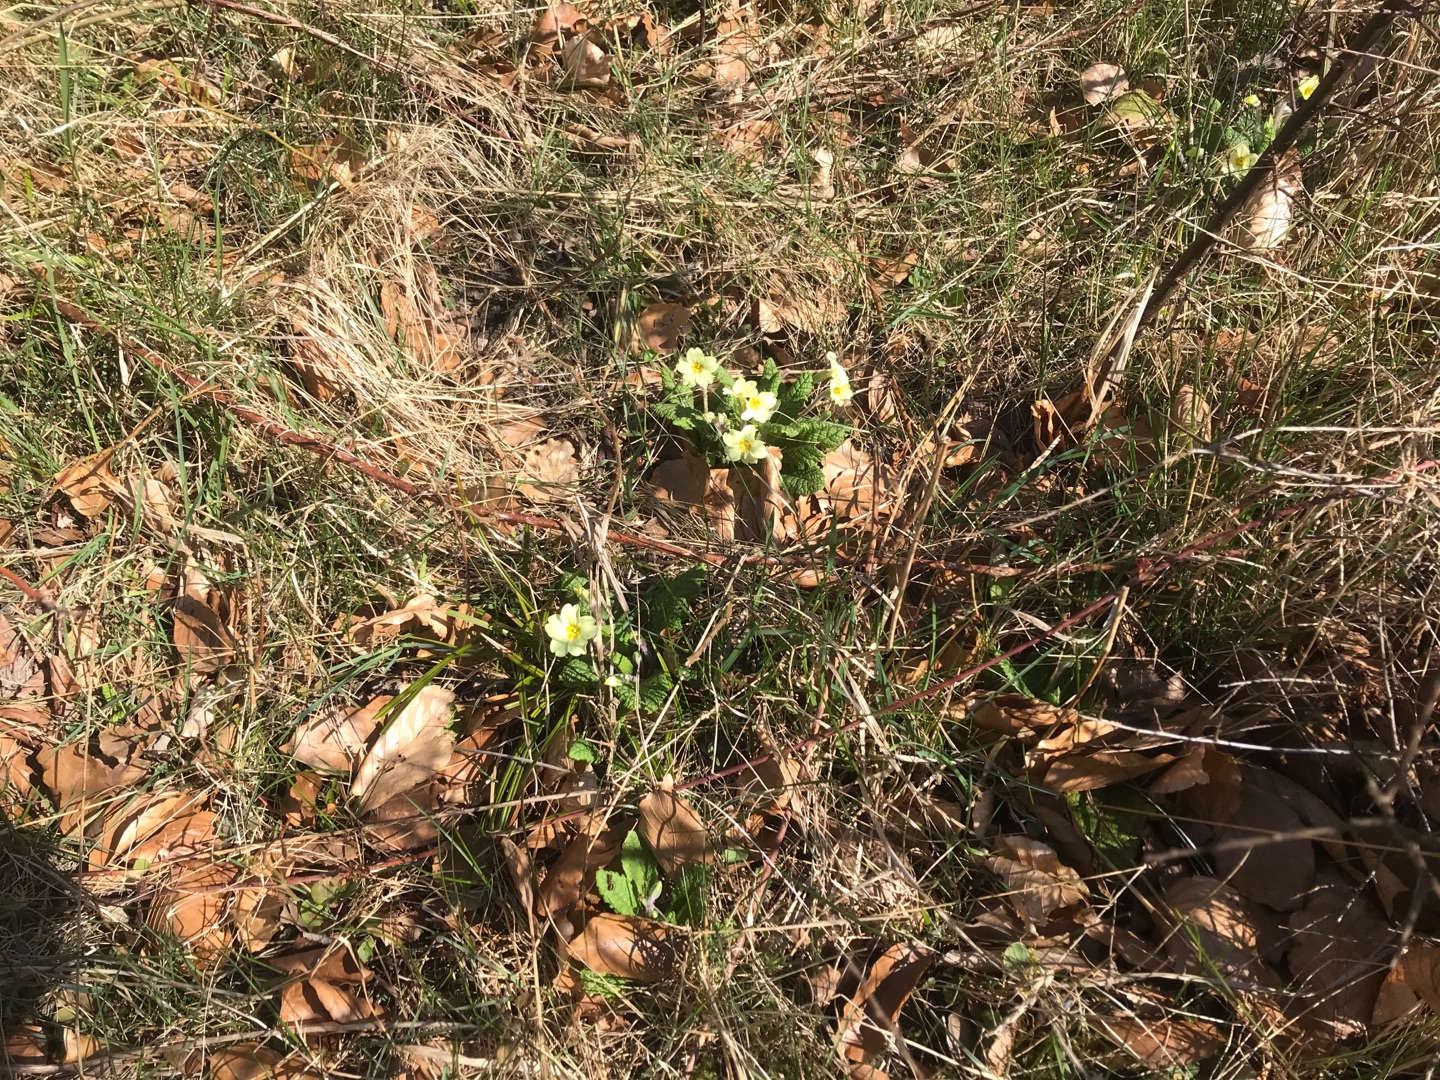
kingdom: Plantae
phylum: Tracheophyta
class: Magnoliopsida
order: Ericales
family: Primulaceae
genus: Primula
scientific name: Primula vulgaris
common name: Storblomstret kodriver
